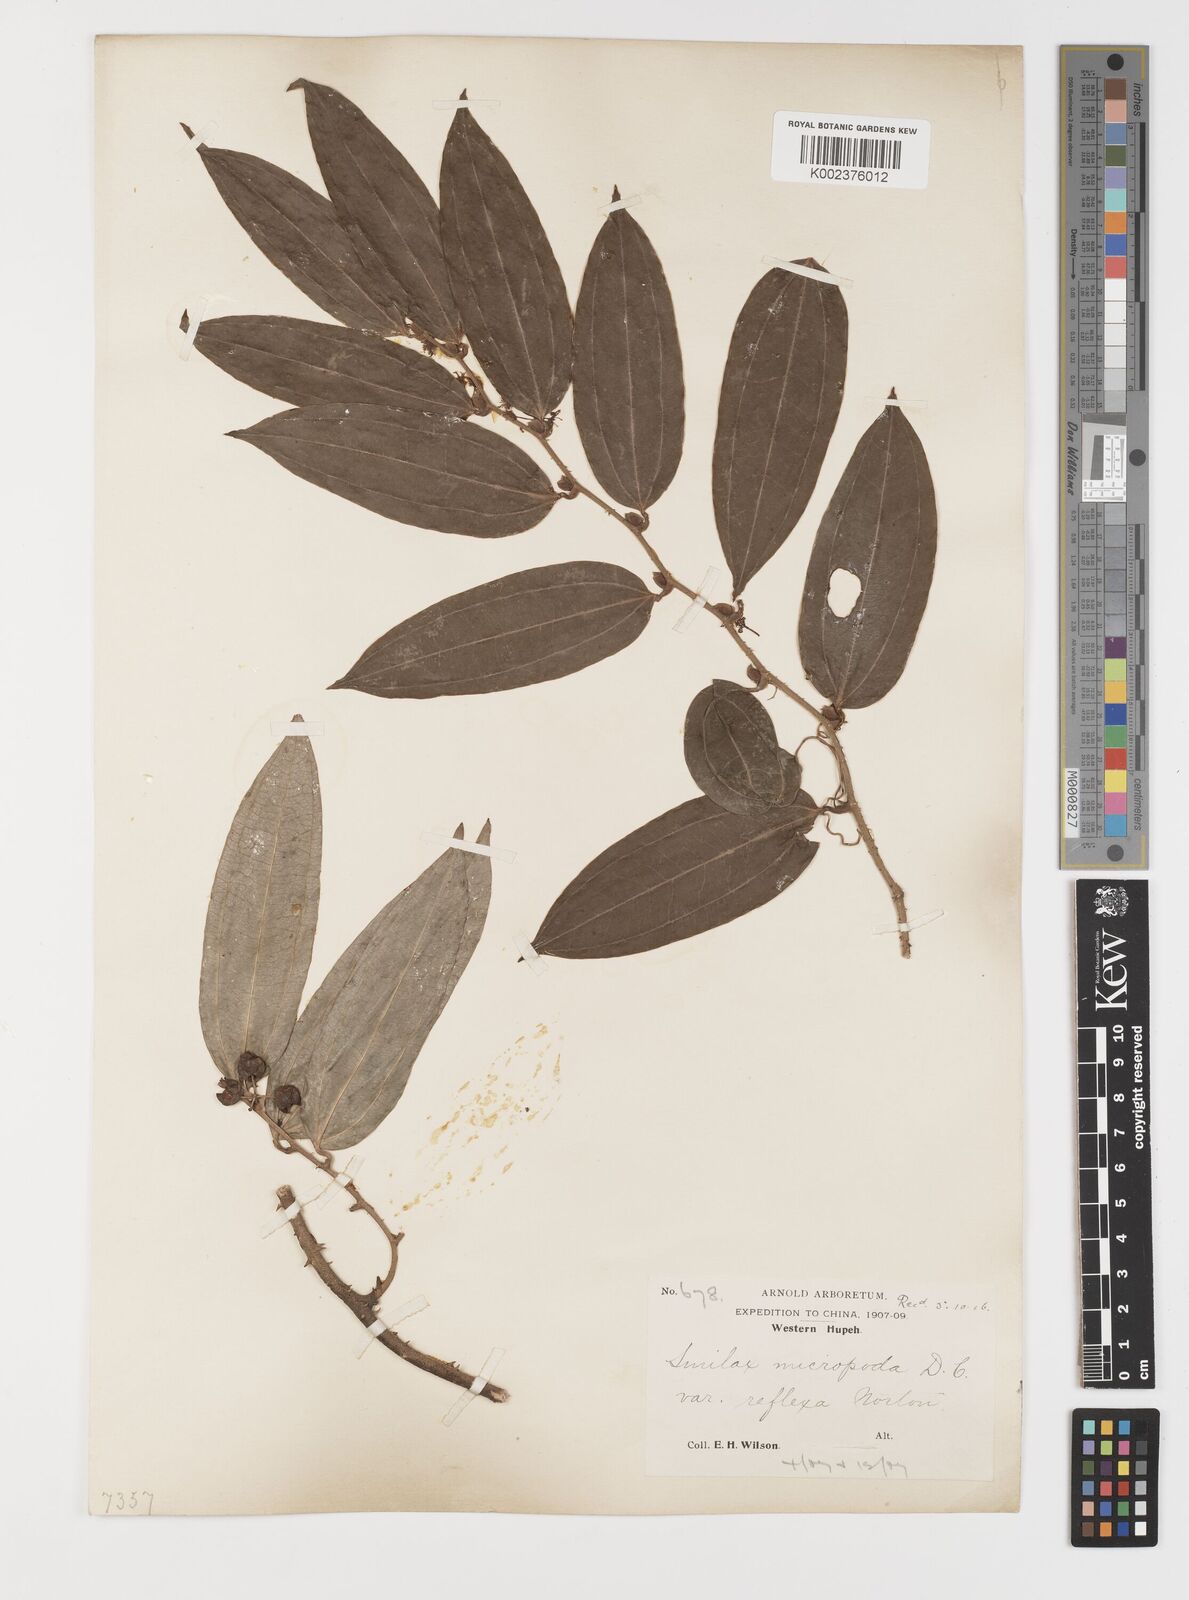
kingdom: Plantae
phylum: Tracheophyta
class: Liliopsida
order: Liliales
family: Smilacaceae
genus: Smilax
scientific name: Smilax chapaensis
